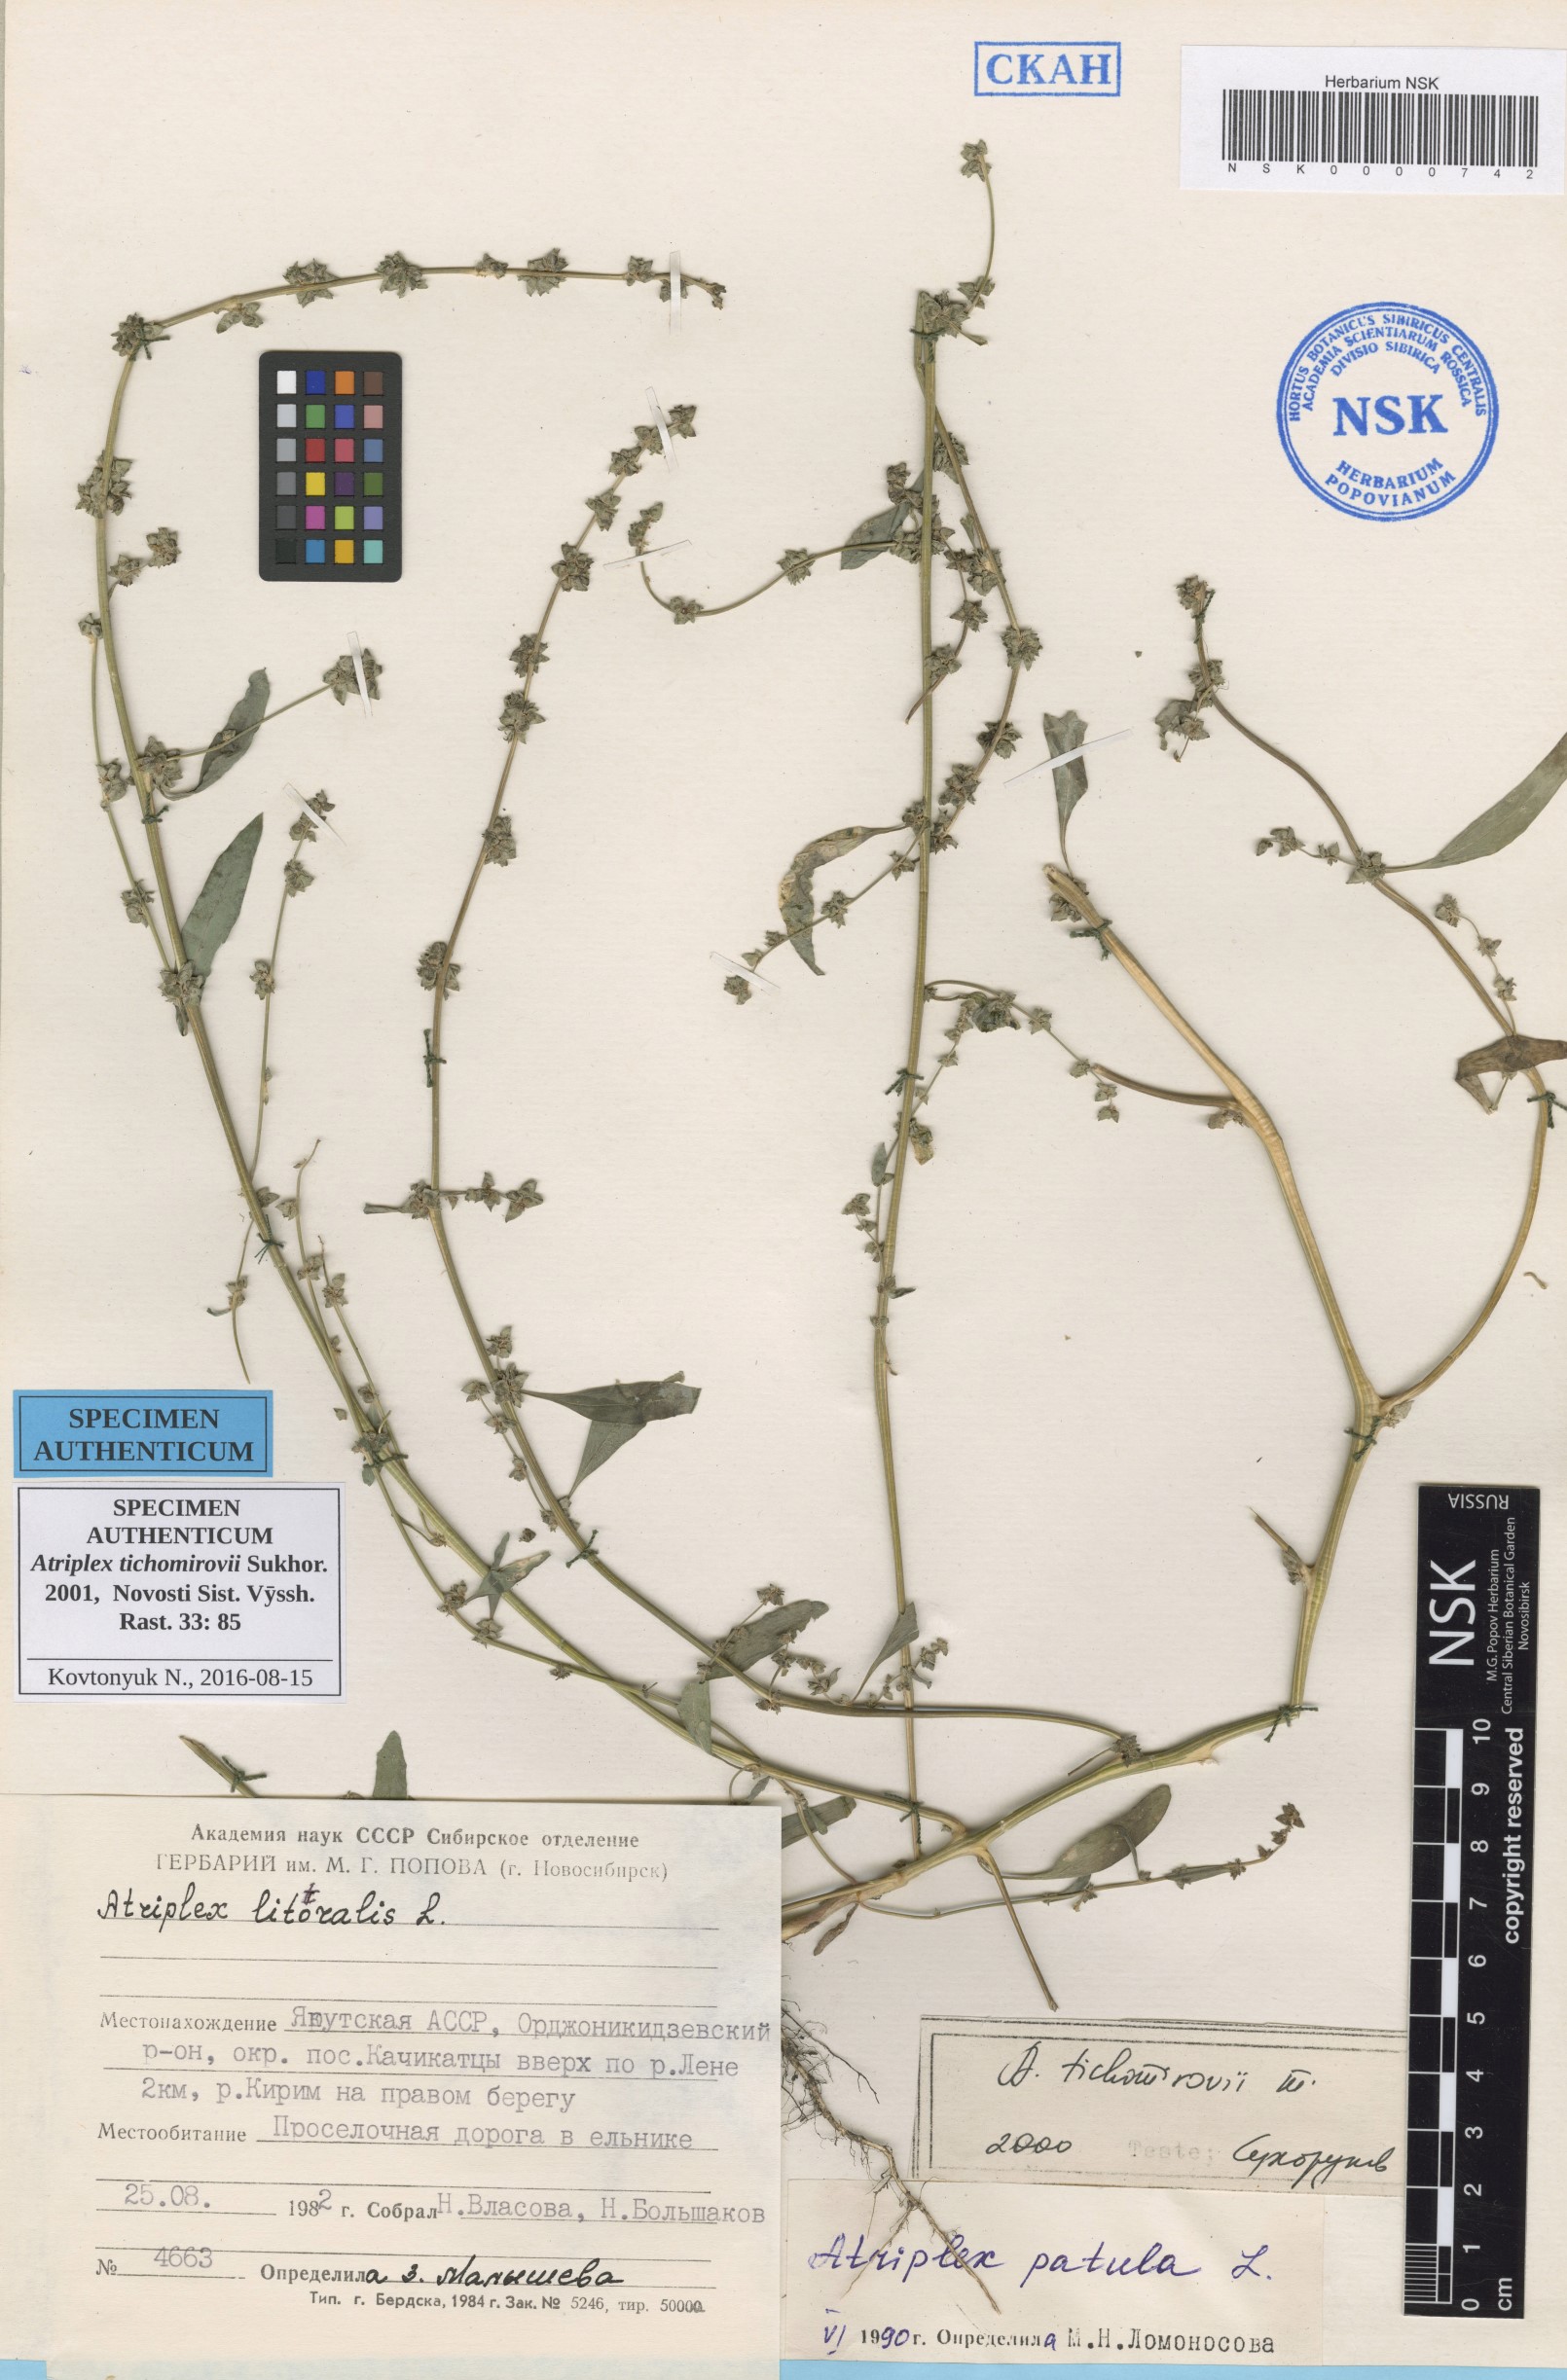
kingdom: Plantae
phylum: Tracheophyta
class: Magnoliopsida
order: Caryophyllales
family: Amaranthaceae
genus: Atriplex
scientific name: Atriplex tichomirovii
